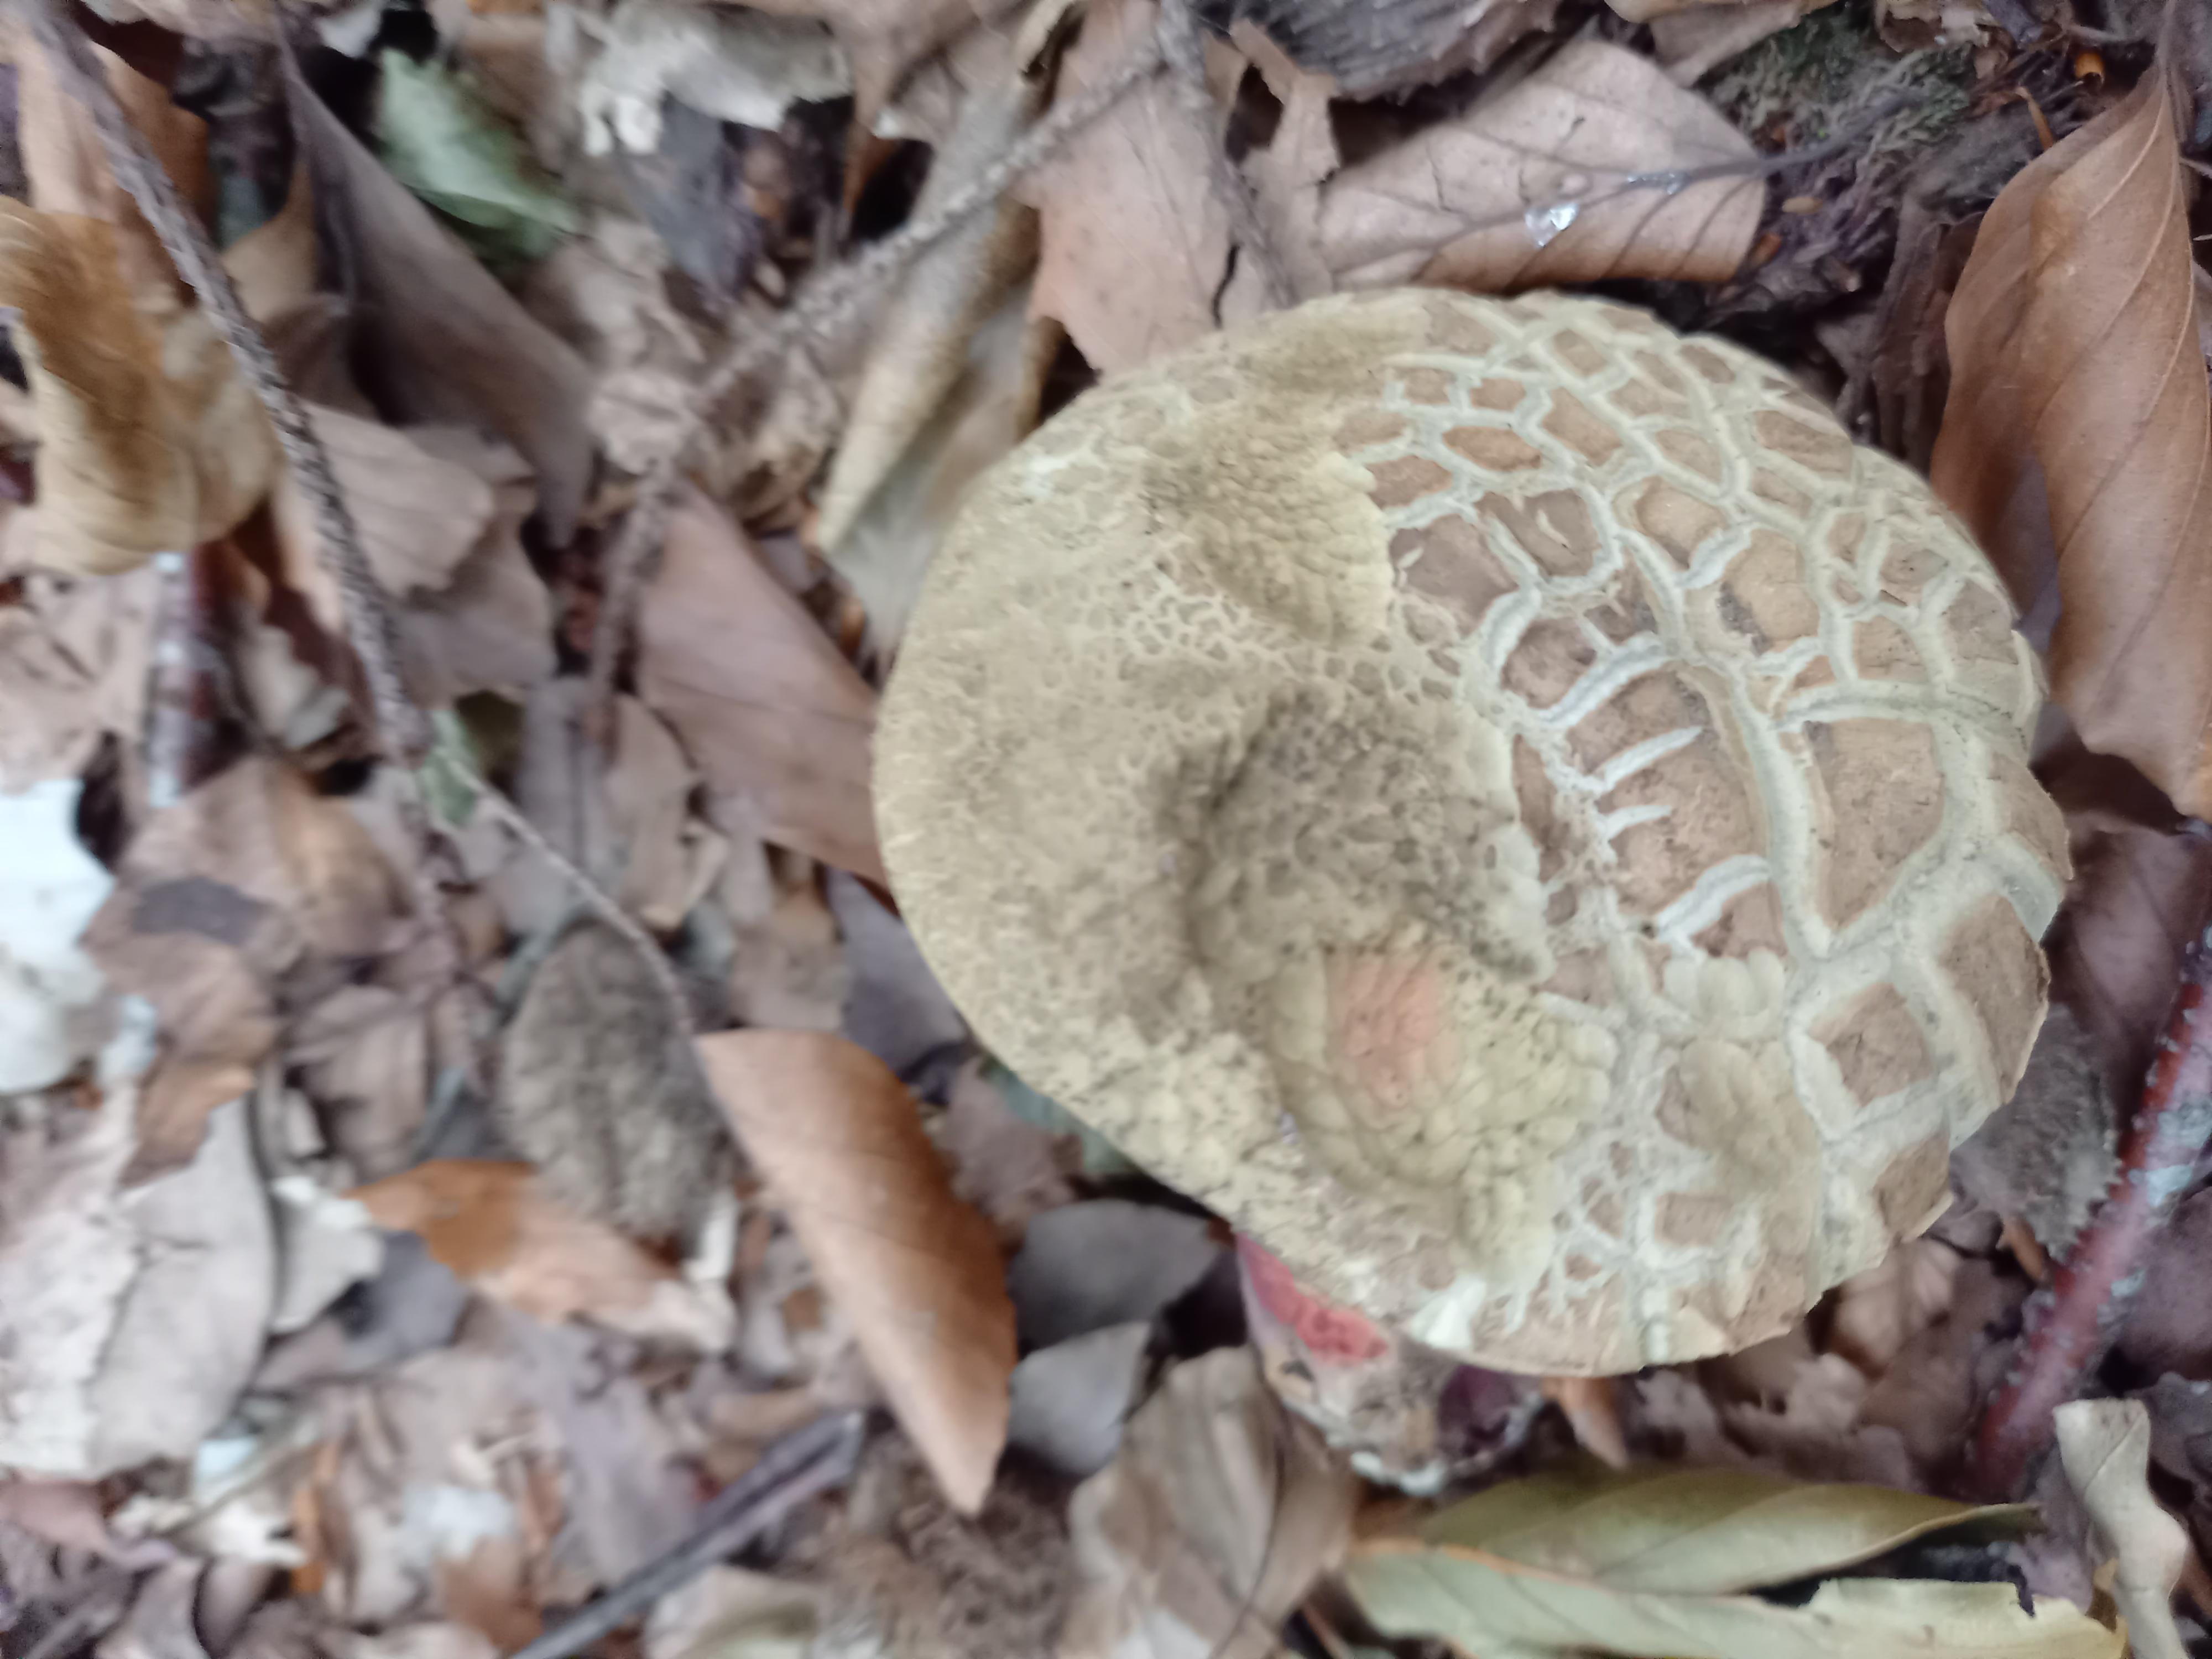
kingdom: Fungi
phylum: Basidiomycota
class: Agaricomycetes
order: Boletales
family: Boletaceae
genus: Caloboletus
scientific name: Caloboletus calopus
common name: skønfodet rørhat
